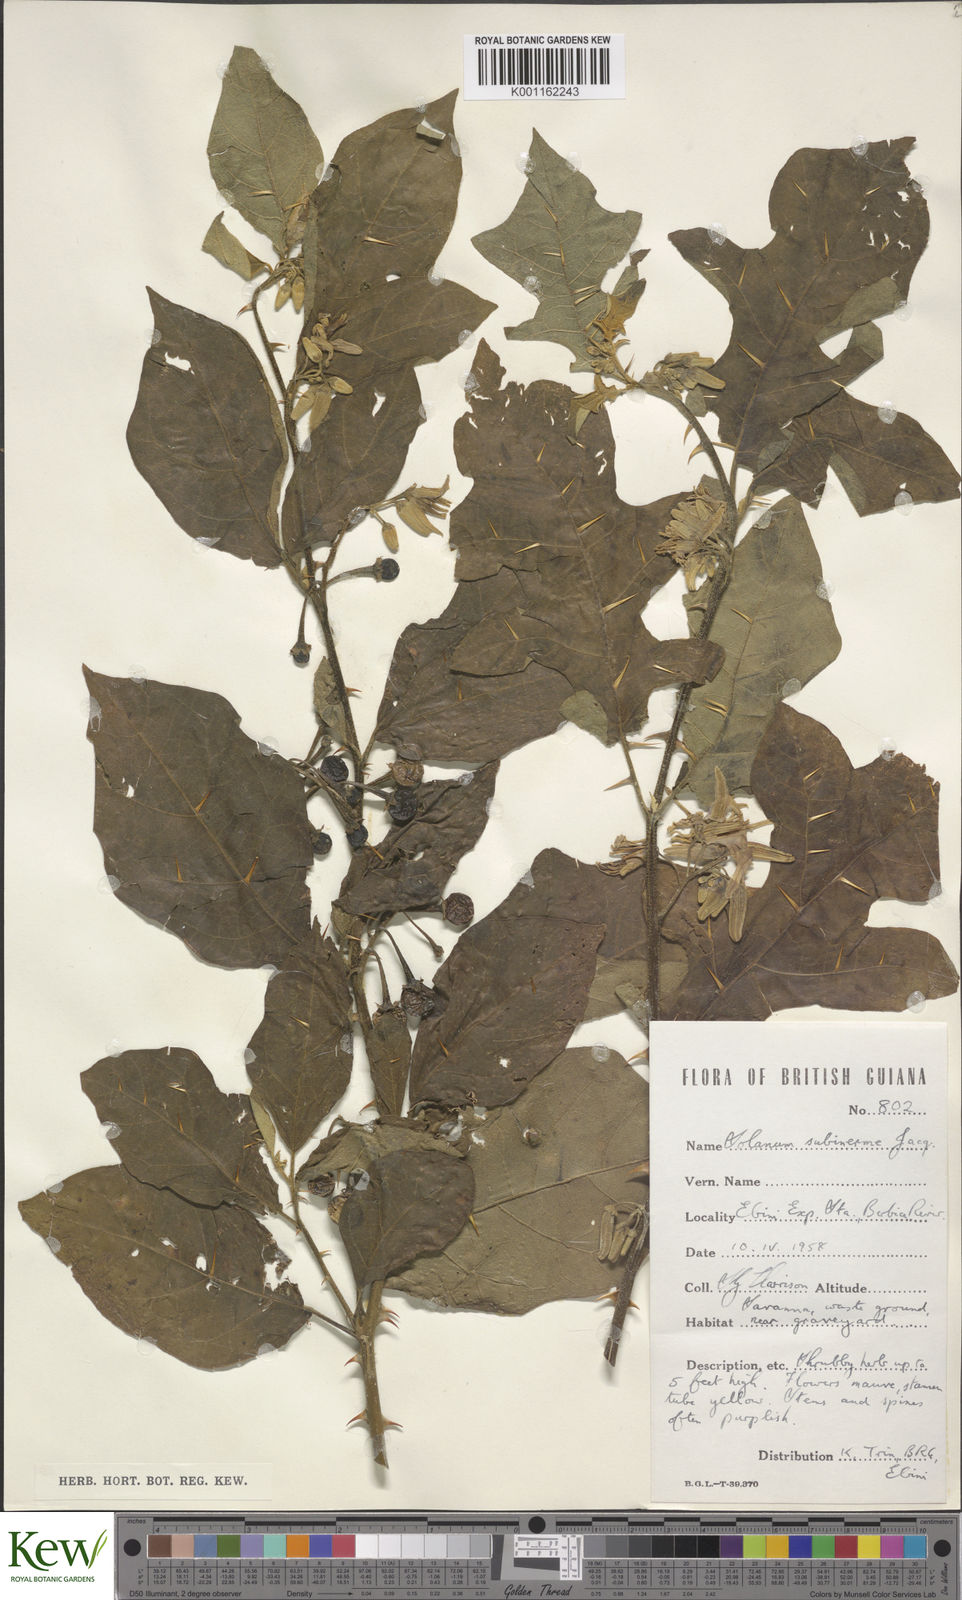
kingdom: Plantae
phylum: Tracheophyta
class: Magnoliopsida
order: Solanales
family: Solanaceae
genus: Solanum
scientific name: Solanum subinerme
